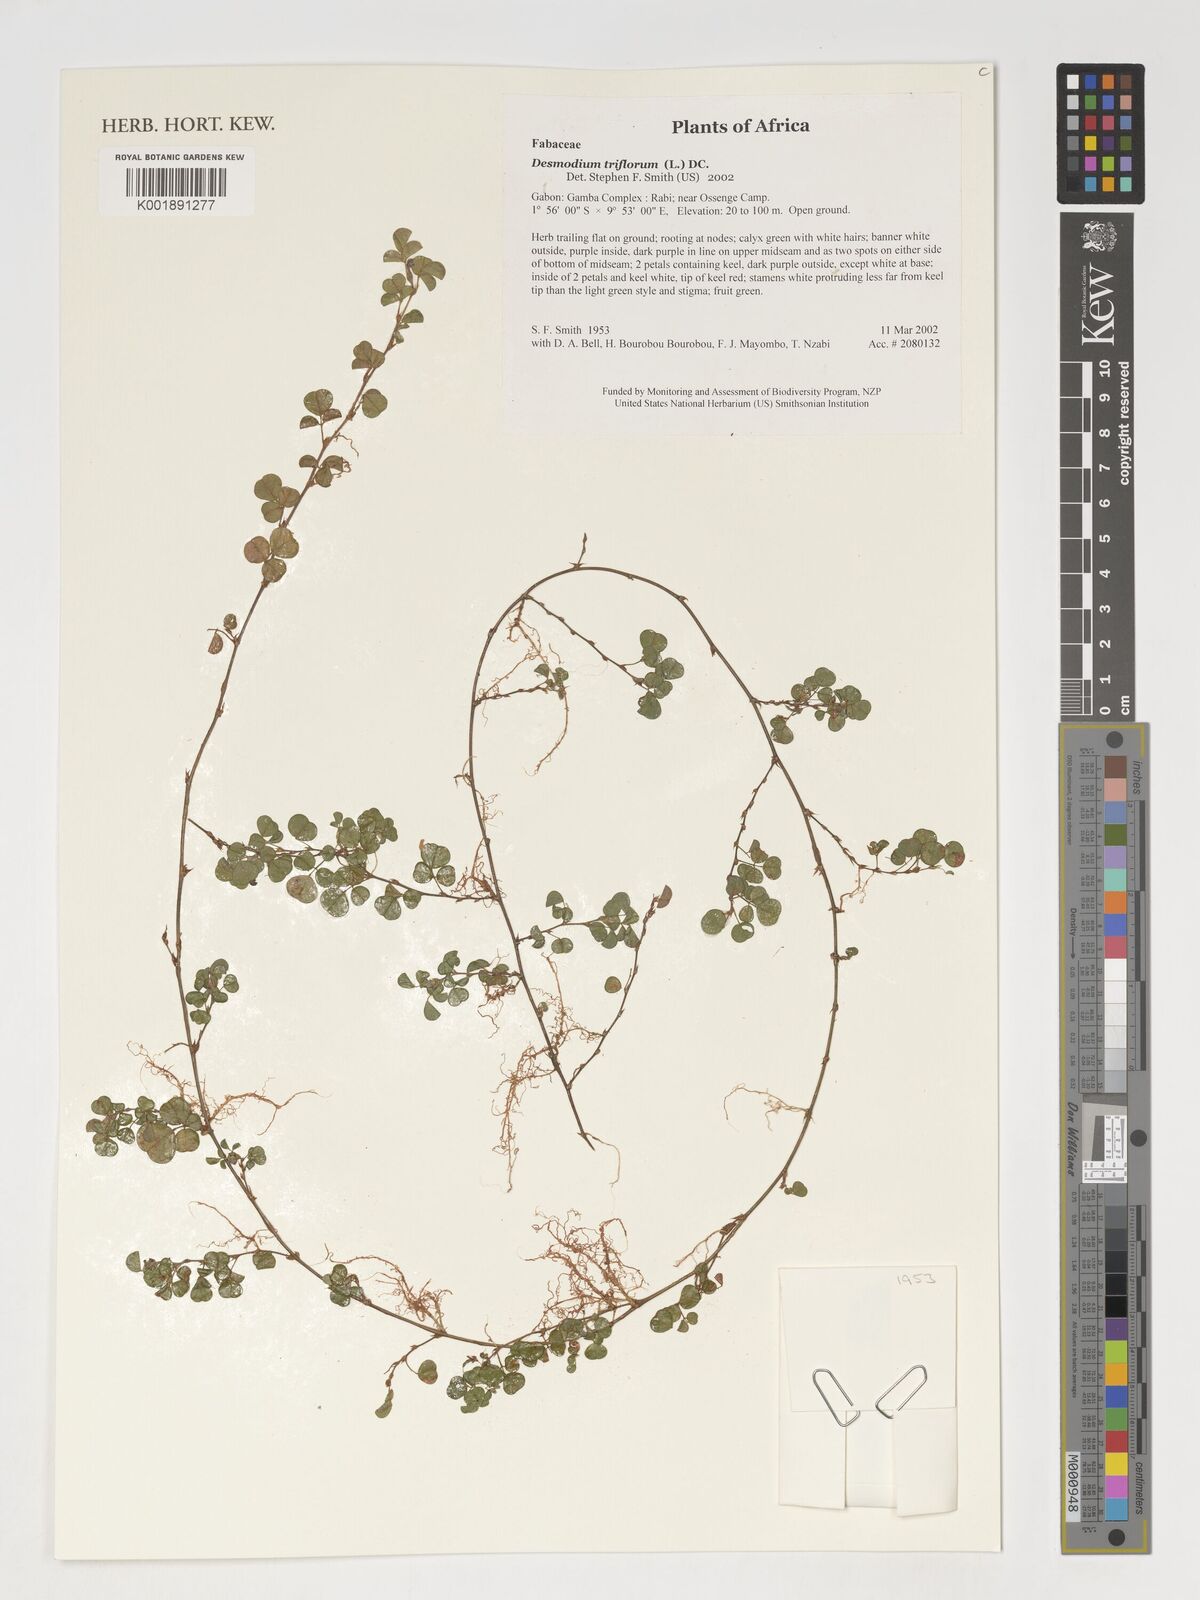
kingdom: Plantae
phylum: Tracheophyta
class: Magnoliopsida
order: Fabales
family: Fabaceae
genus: Grona
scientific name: Grona triflora
